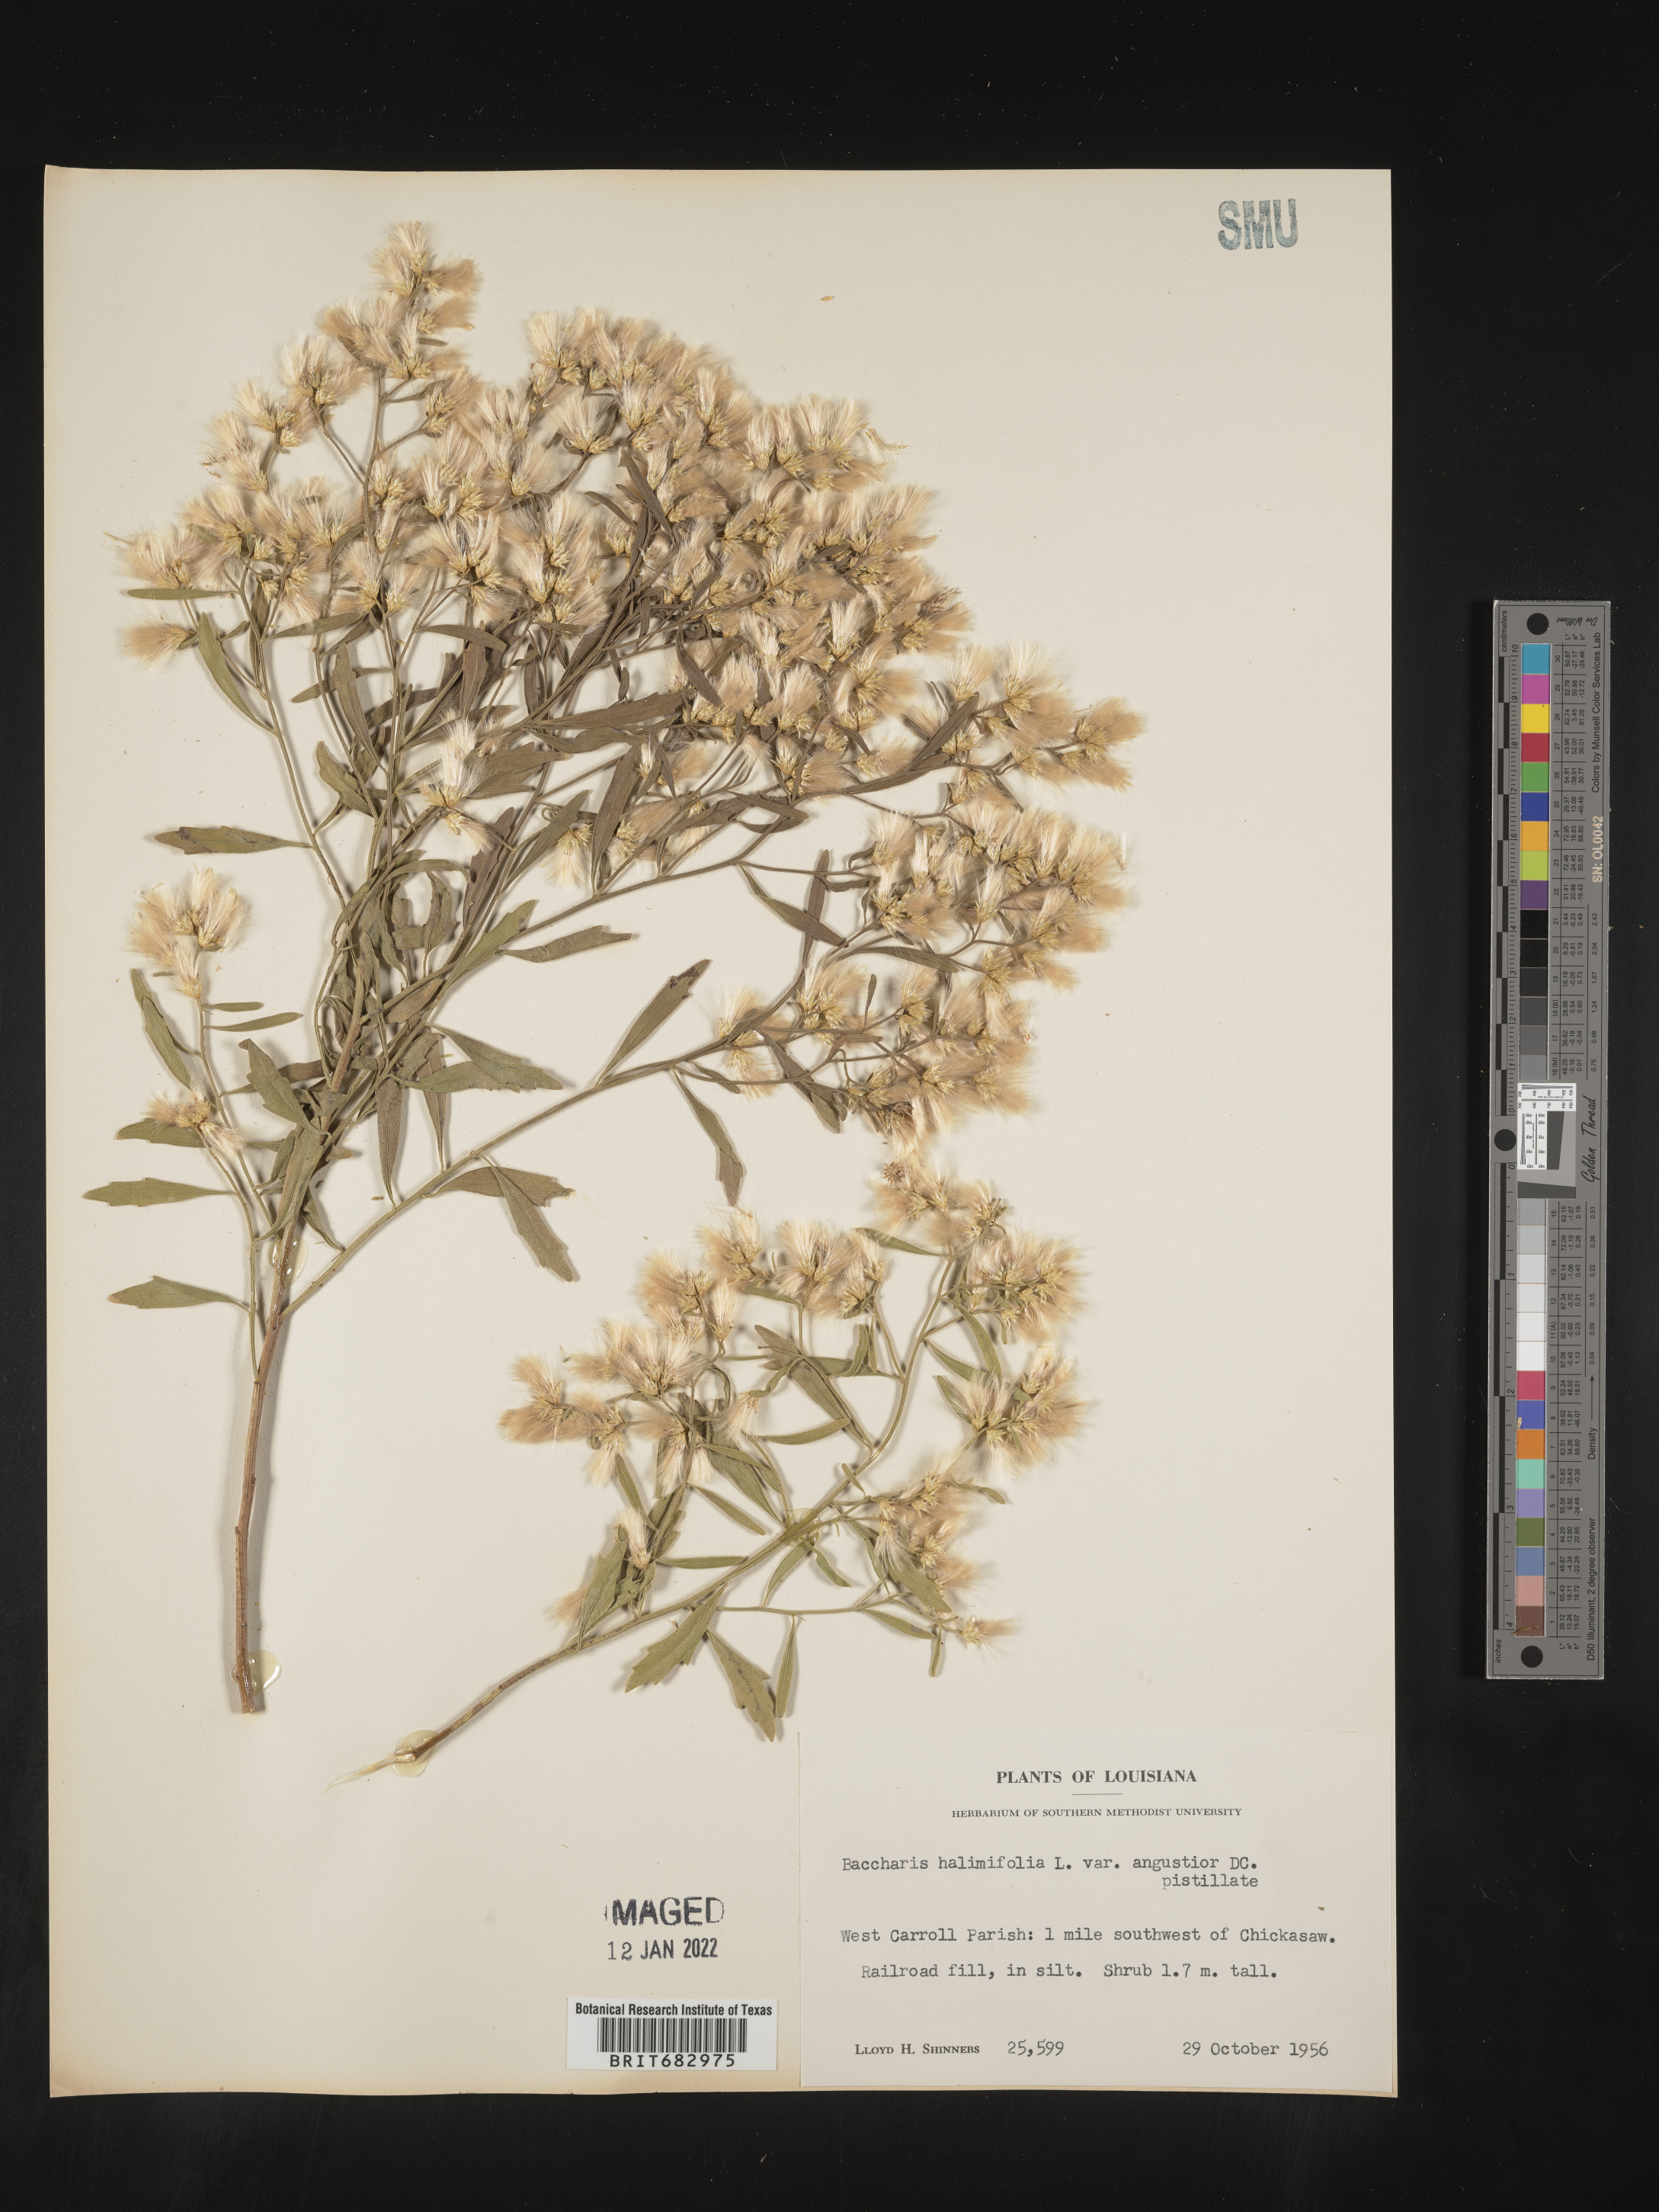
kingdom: Plantae
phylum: Tracheophyta
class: Magnoliopsida
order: Asterales
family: Asteraceae
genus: Nidorella
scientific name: Nidorella ivifolia
